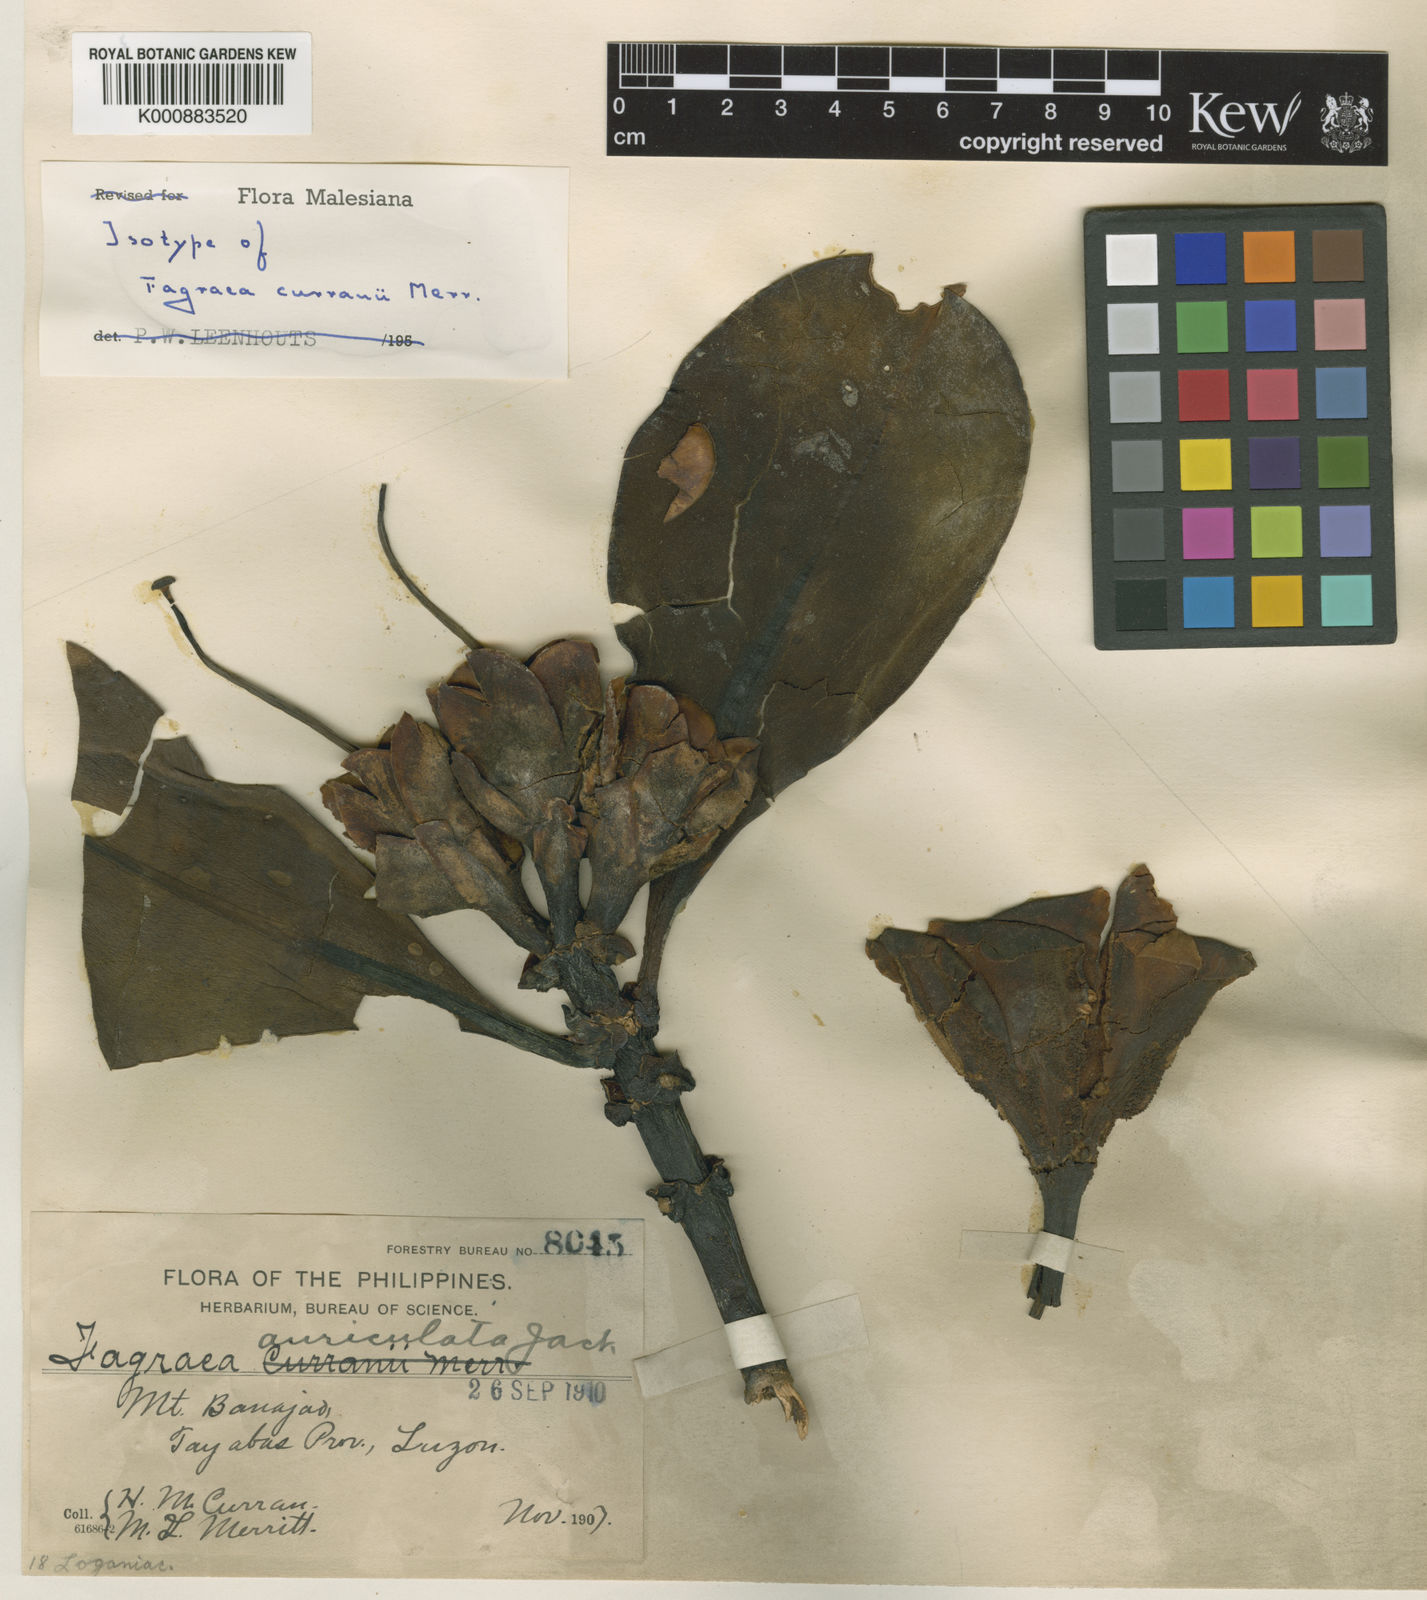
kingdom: Plantae
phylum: Tracheophyta
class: Magnoliopsida
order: Gentianales
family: Gentianaceae
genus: Fagraea
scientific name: Fagraea
